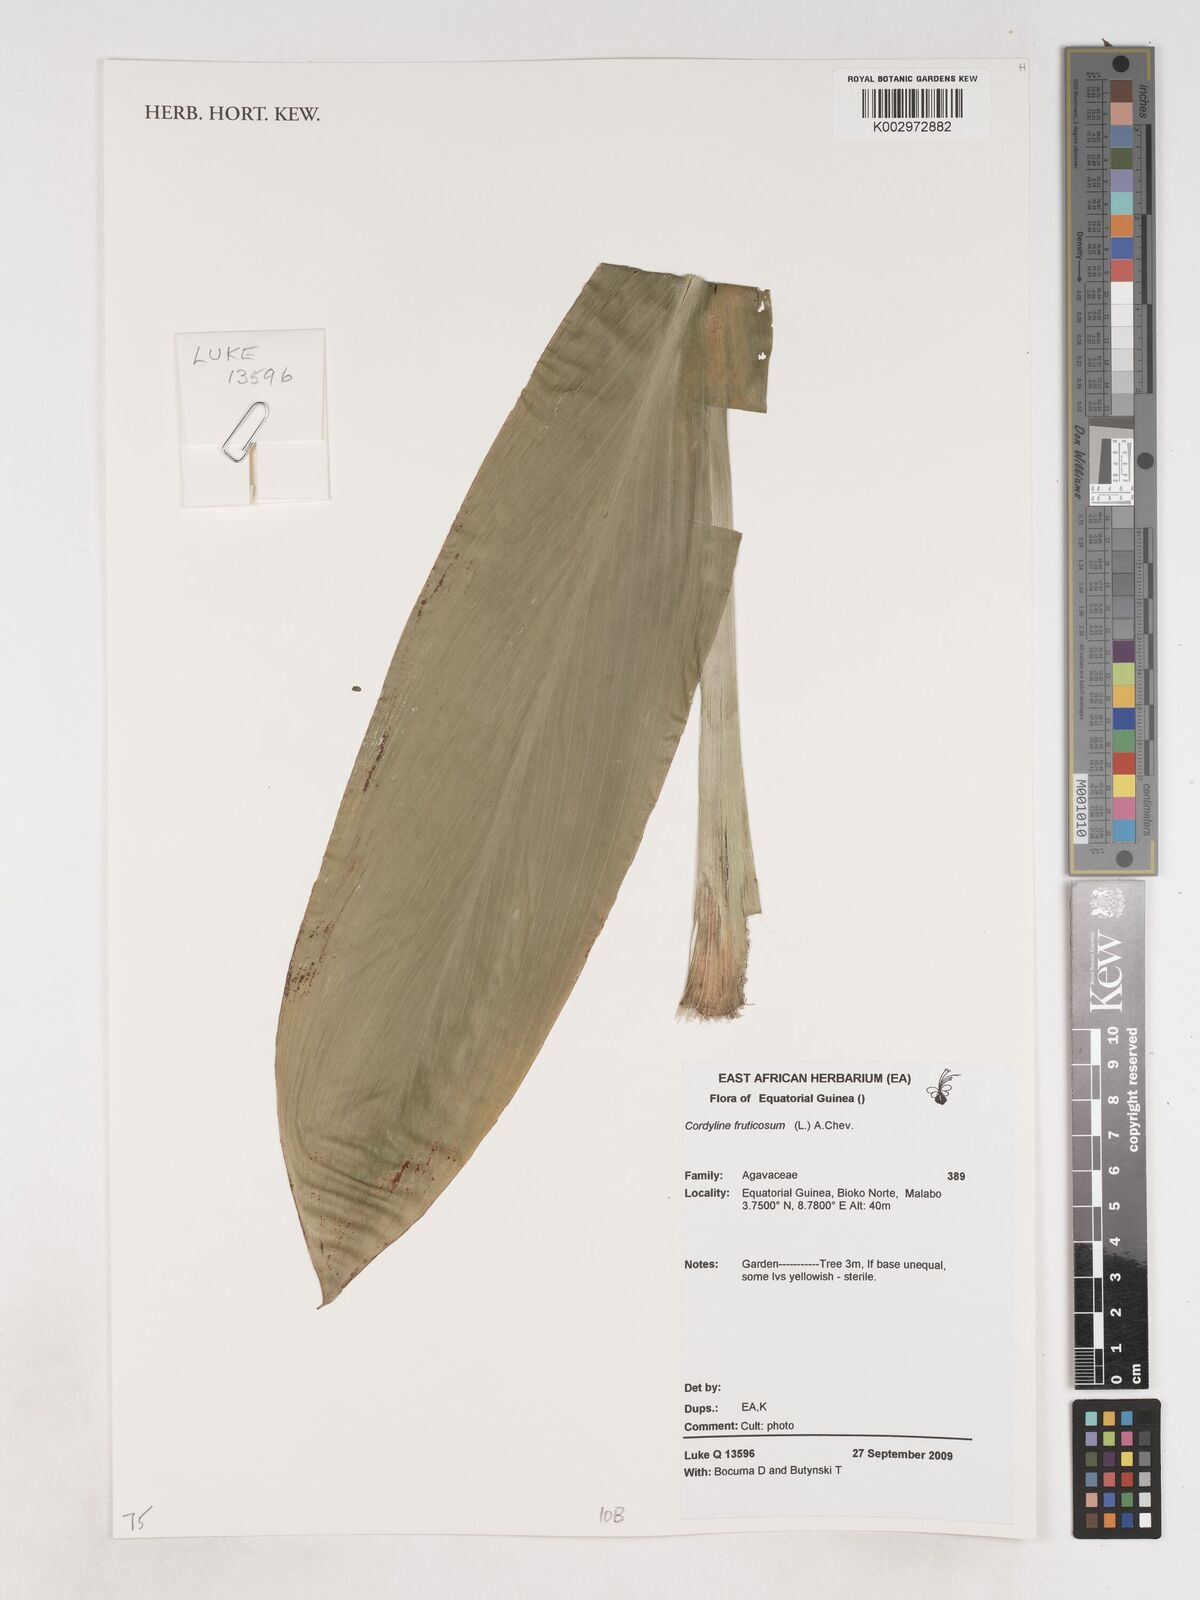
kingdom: Plantae
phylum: Tracheophyta
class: Liliopsida
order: Asparagales
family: Asparagaceae
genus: Cordyline
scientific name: Cordyline fruticosa
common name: Good-luck-plant
